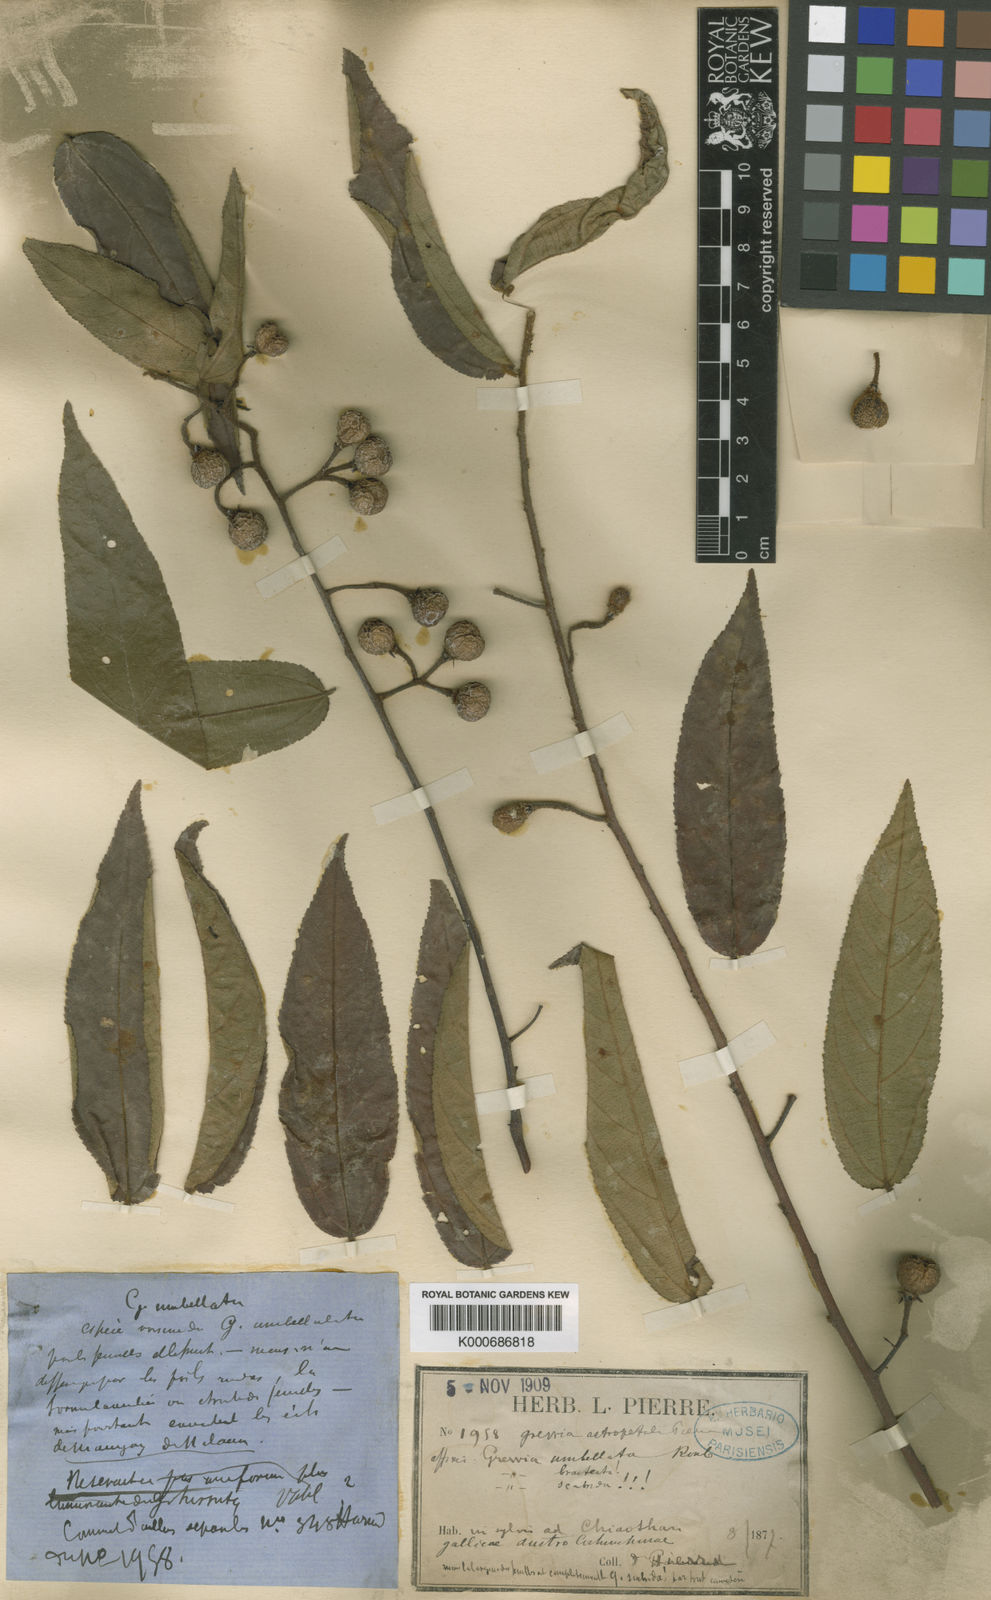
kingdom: Plantae
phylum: Tracheophyta
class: Magnoliopsida
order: Malvales
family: Malvaceae
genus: Grewia
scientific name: Grewia astropetala
